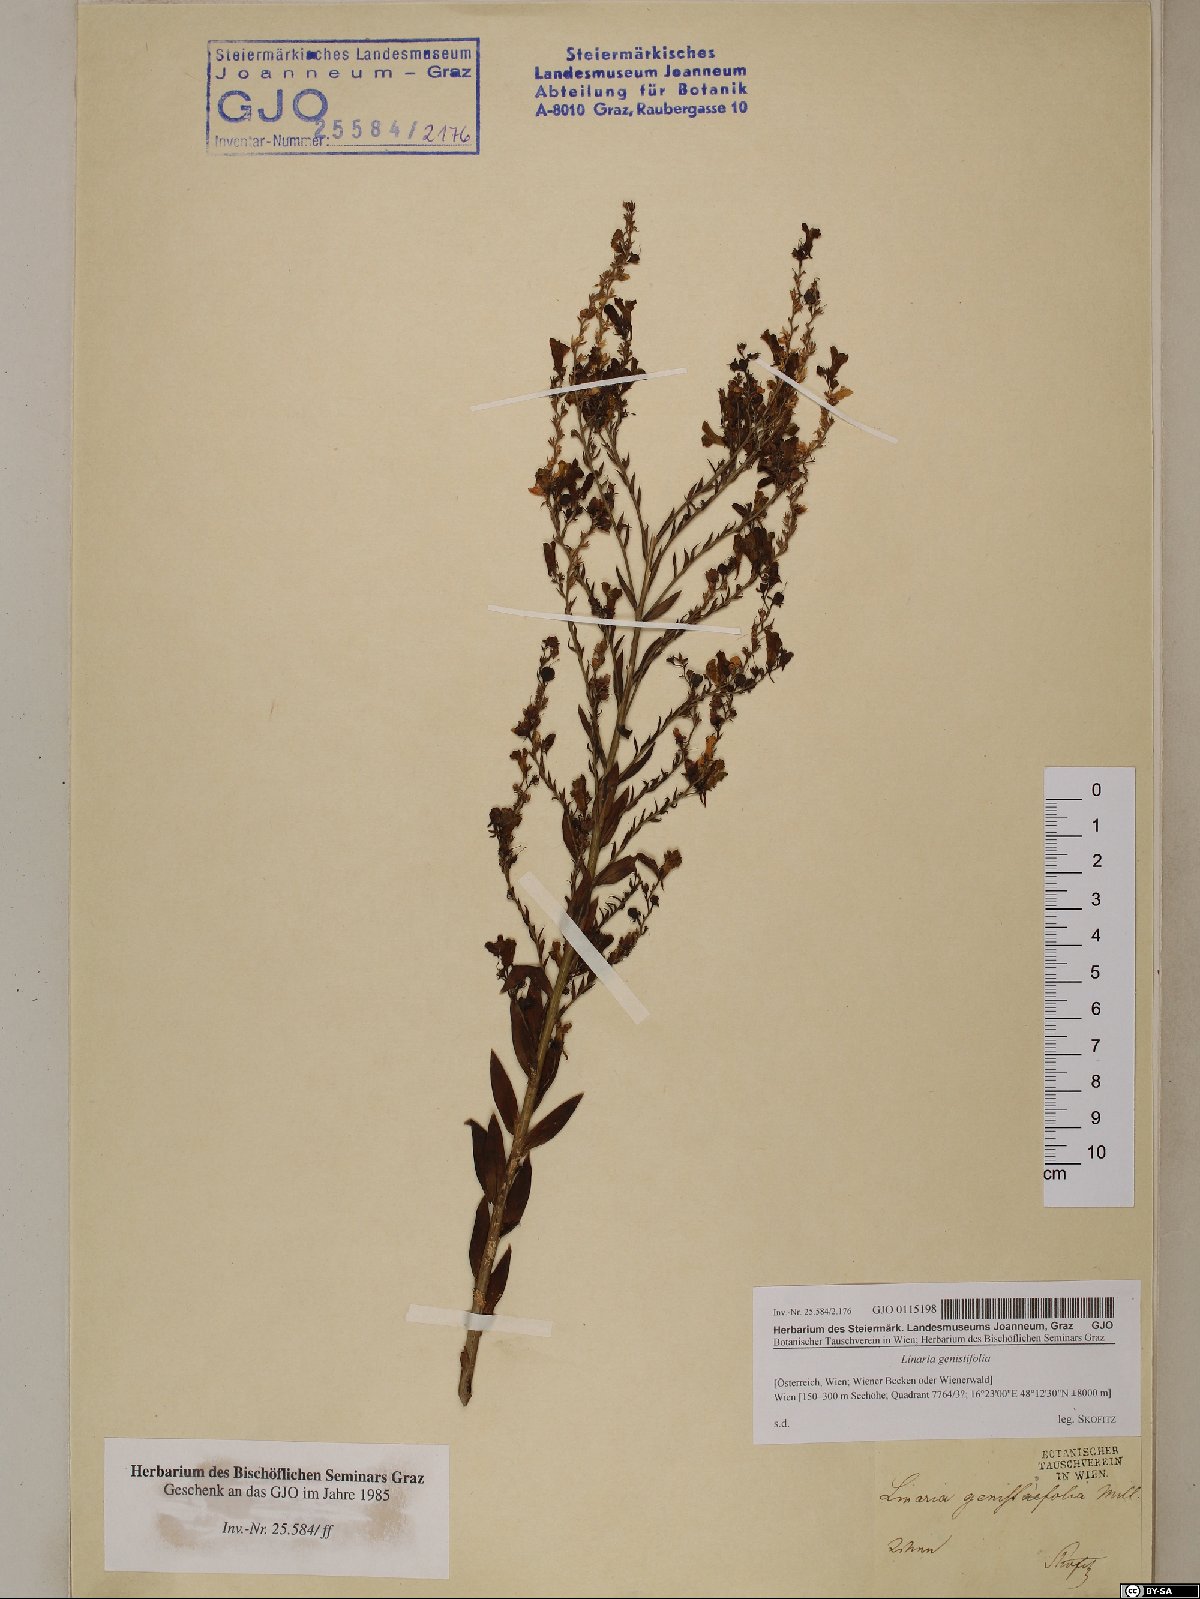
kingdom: Plantae
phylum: Tracheophyta
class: Magnoliopsida
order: Lamiales
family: Plantaginaceae
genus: Linaria
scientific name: Linaria genistifolia
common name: Broomleaf toadflax
